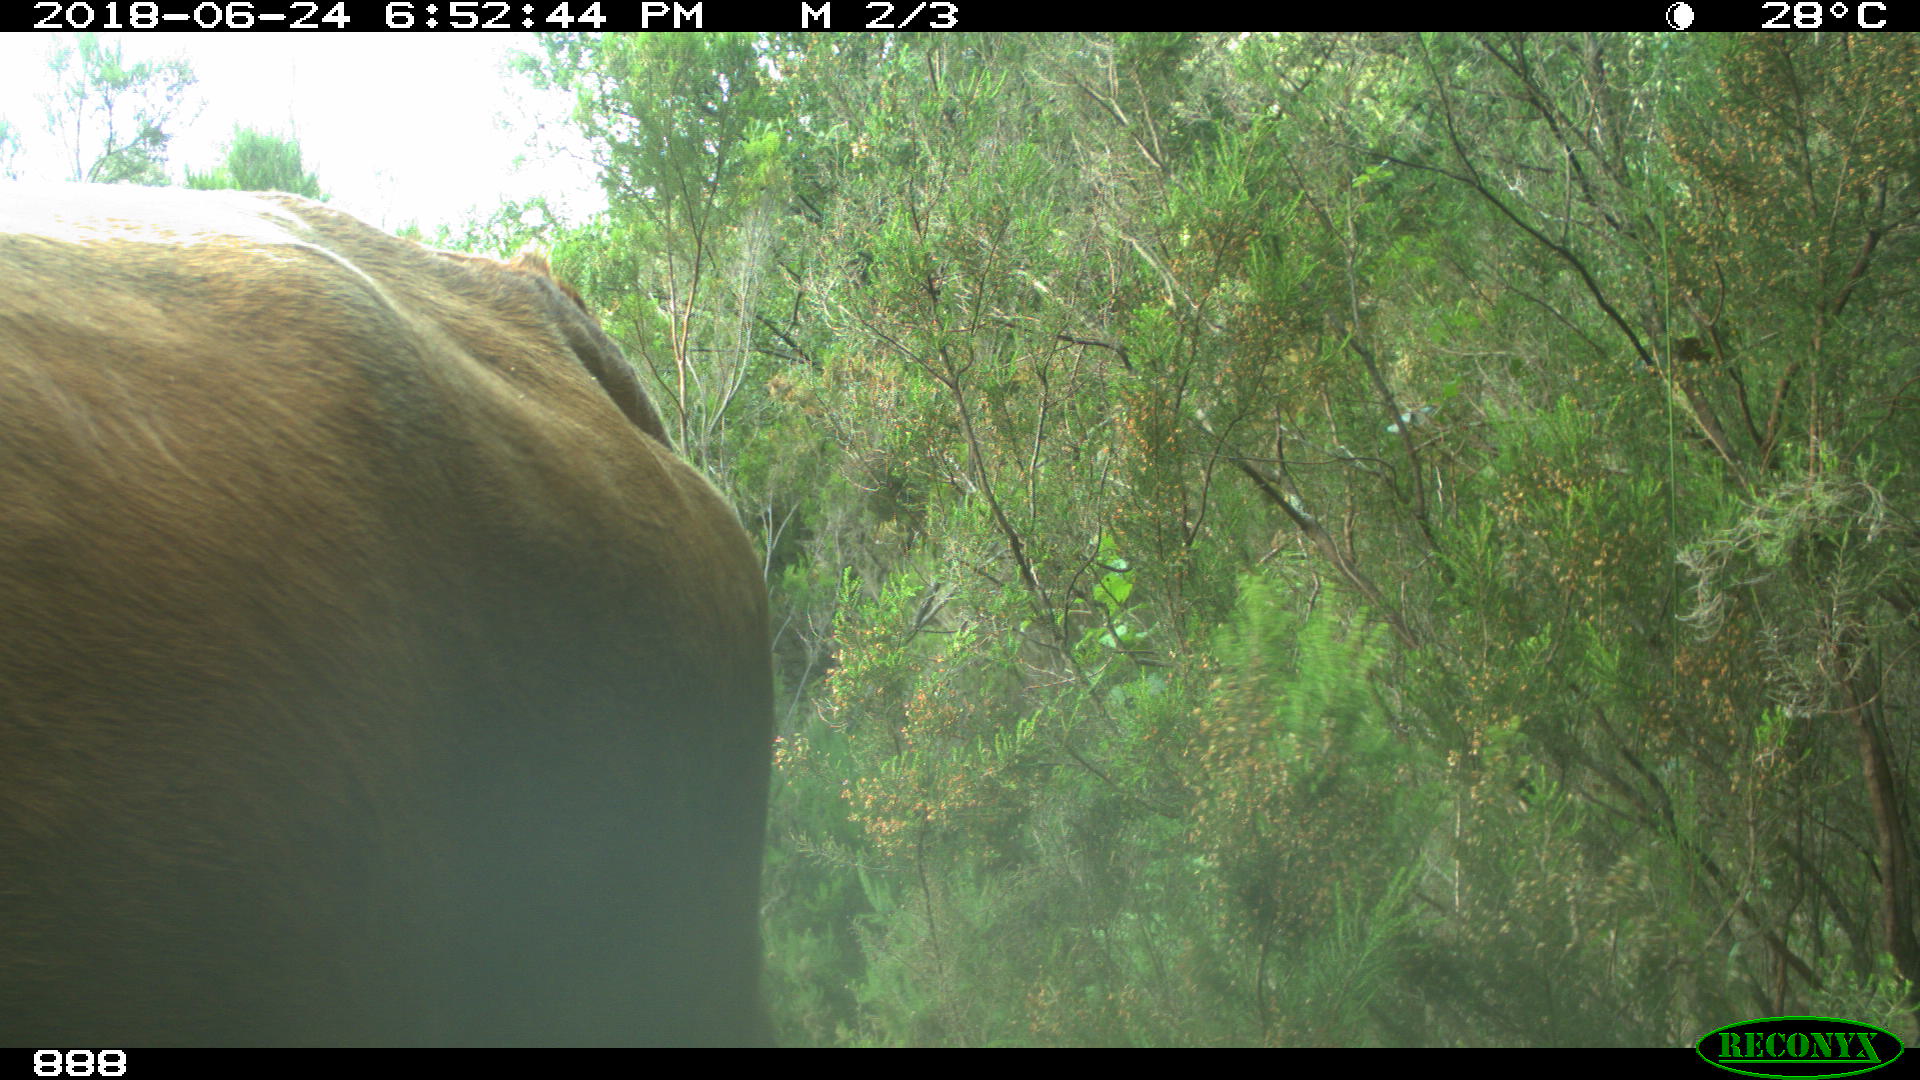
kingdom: Animalia
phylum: Chordata
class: Mammalia
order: Artiodactyla
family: Bovidae
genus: Bos
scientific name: Bos taurus
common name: Domesticated cattle
